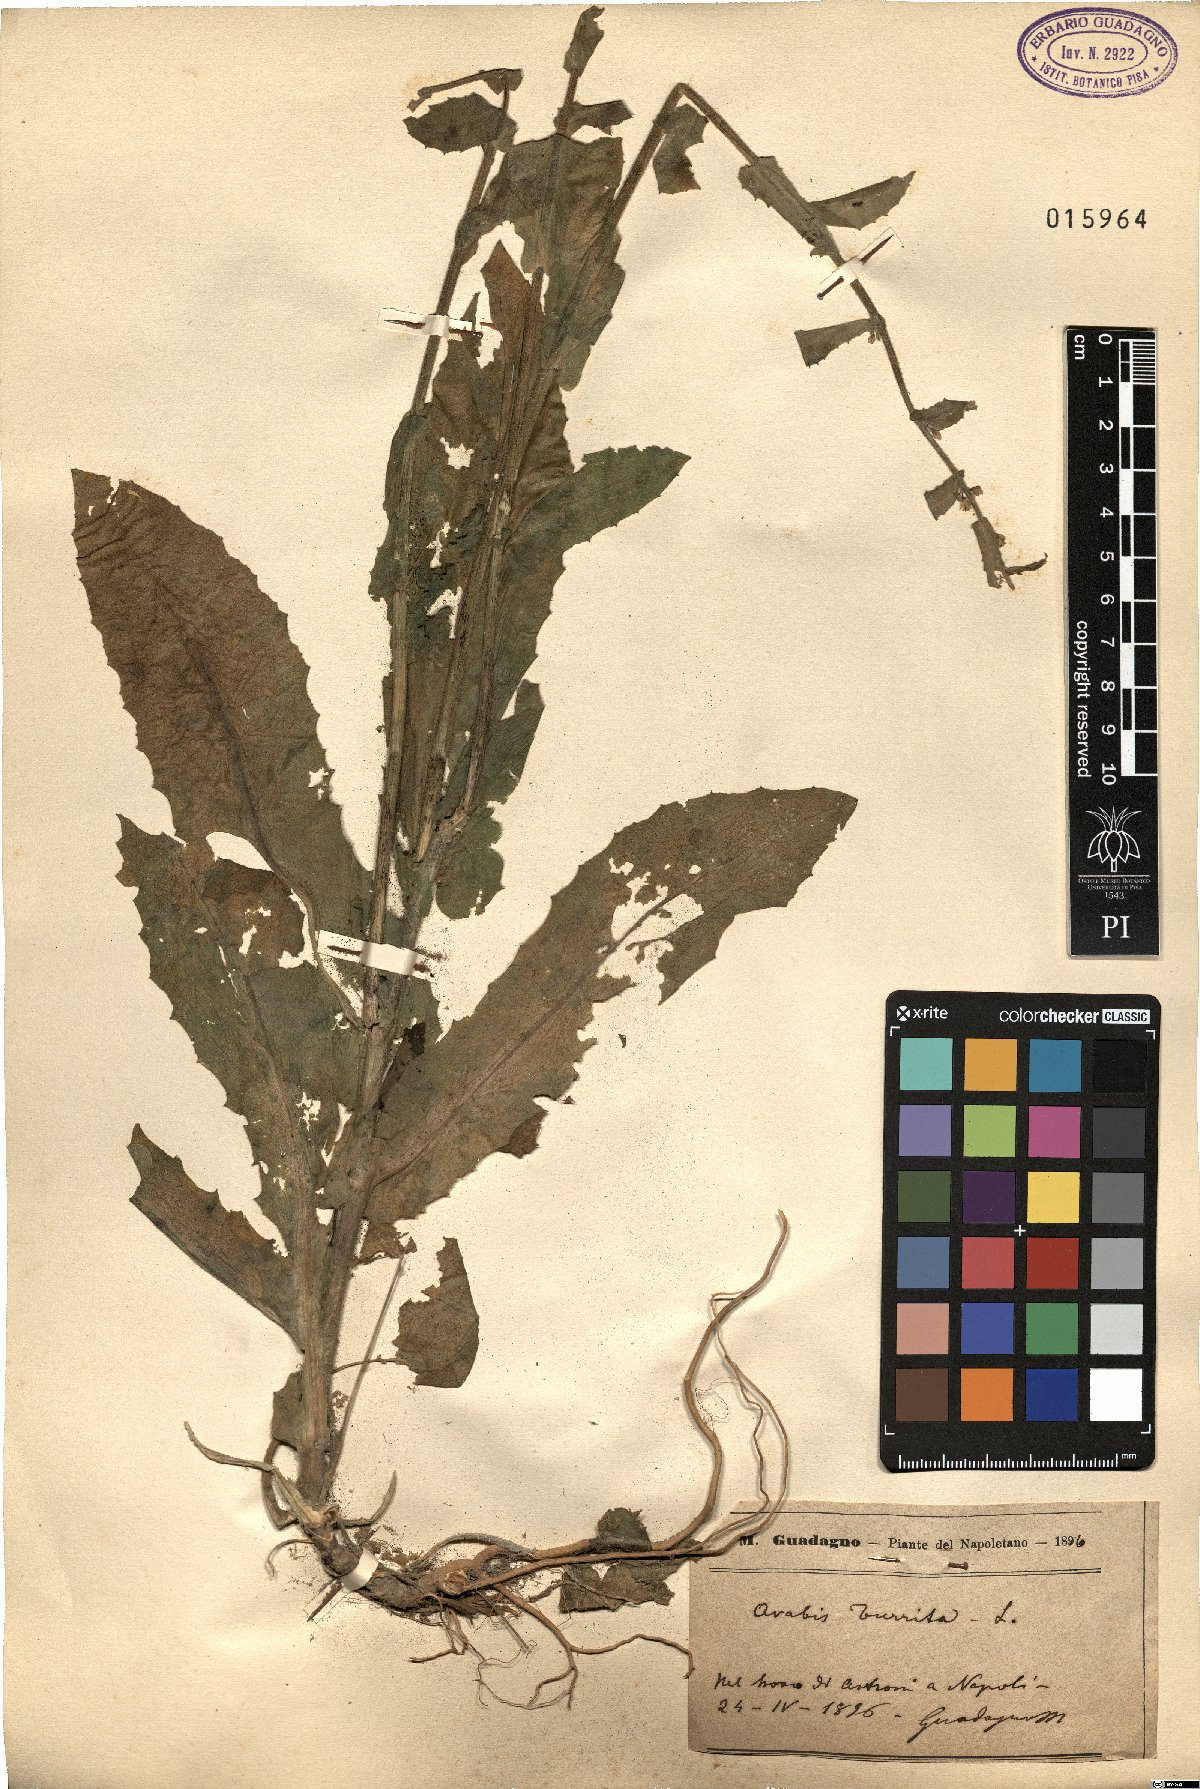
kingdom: Plantae
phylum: Tracheophyta
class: Magnoliopsida
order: Brassicales
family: Brassicaceae
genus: Pseudoturritis
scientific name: Pseudoturritis turrita
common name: Tower cress
